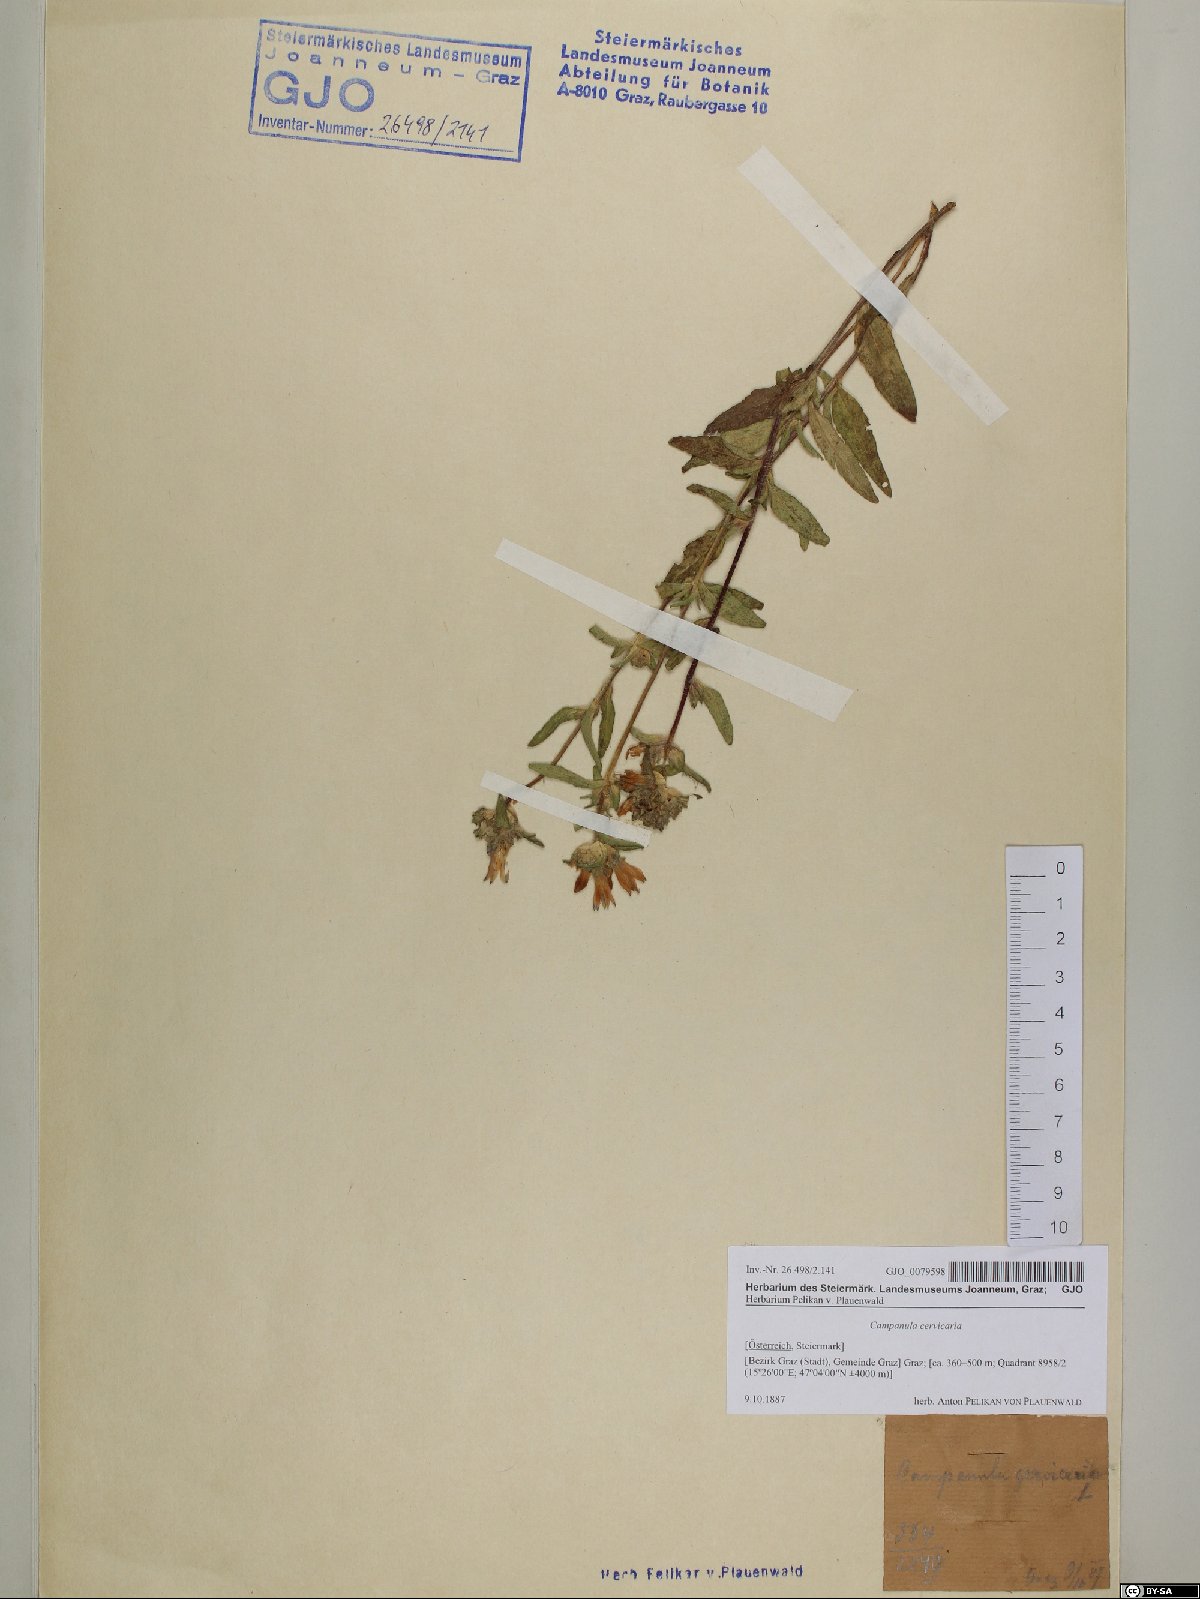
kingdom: Plantae
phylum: Tracheophyta
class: Magnoliopsida
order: Asterales
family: Campanulaceae
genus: Campanula
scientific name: Campanula cervicaria
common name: Bristly bellflower
